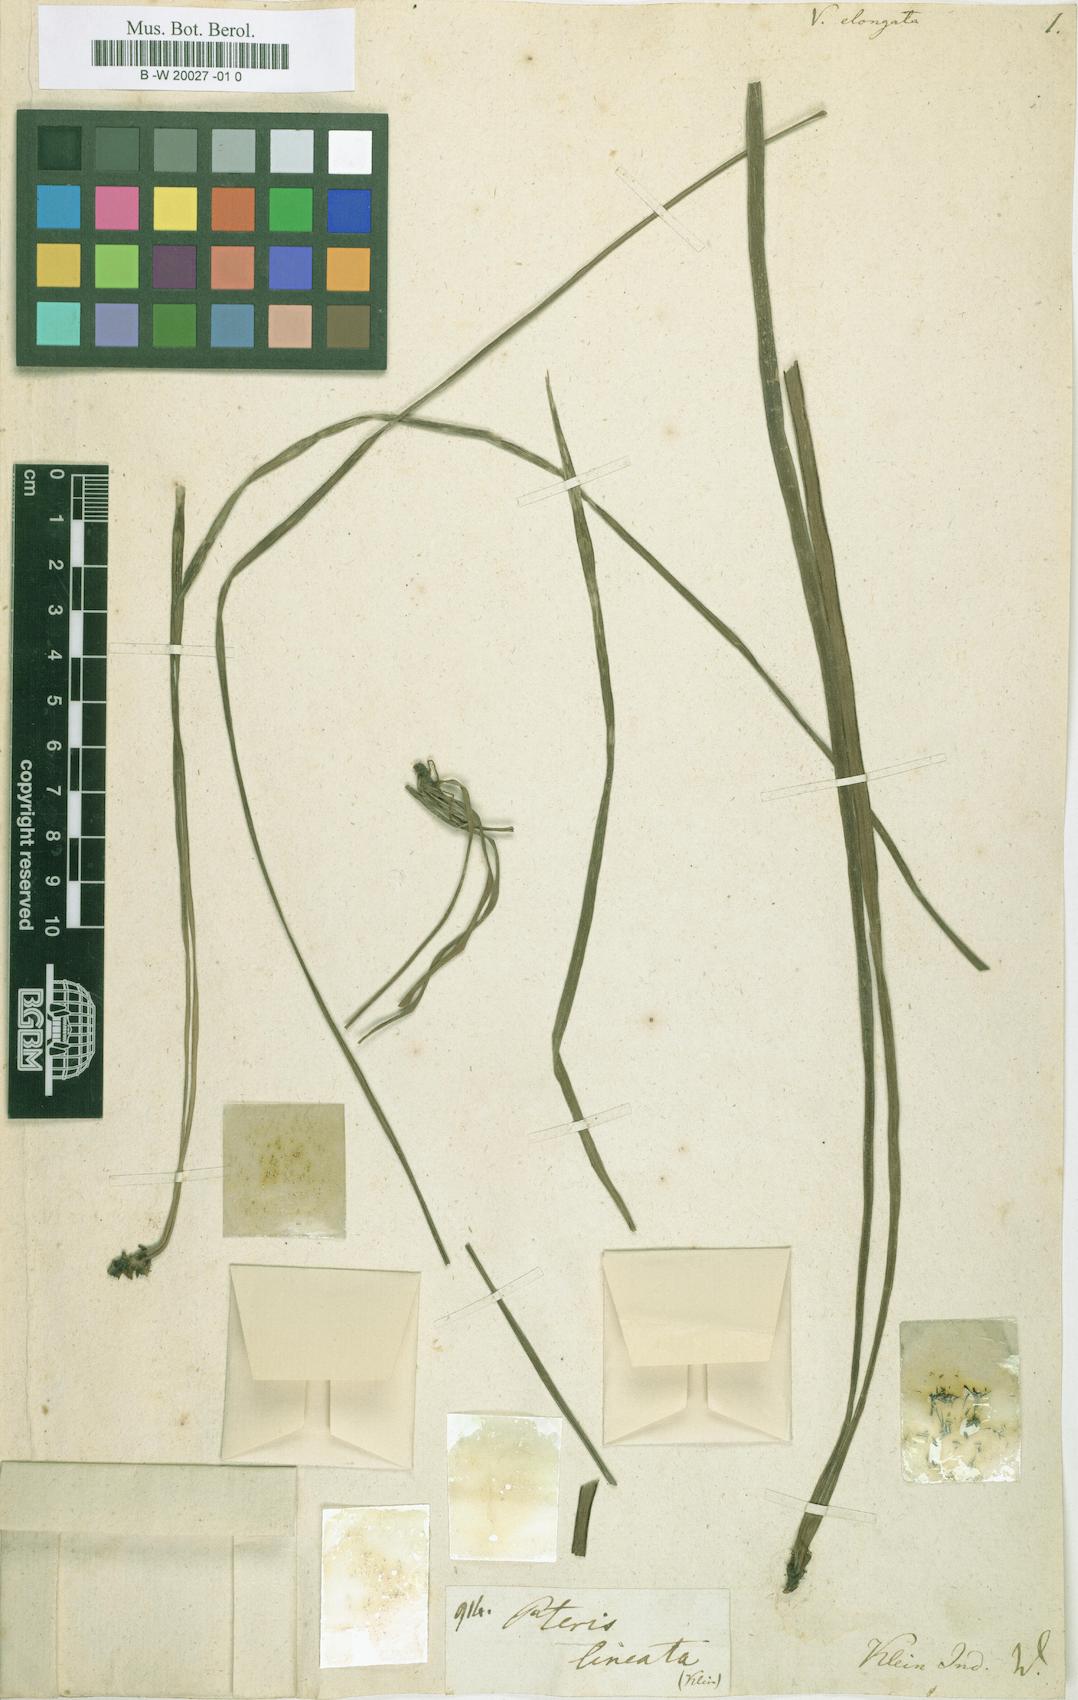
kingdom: Plantae
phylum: Tracheophyta
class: Polypodiopsida
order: Polypodiales
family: Pteridaceae
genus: Haplopteris
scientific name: Haplopteris elongata
